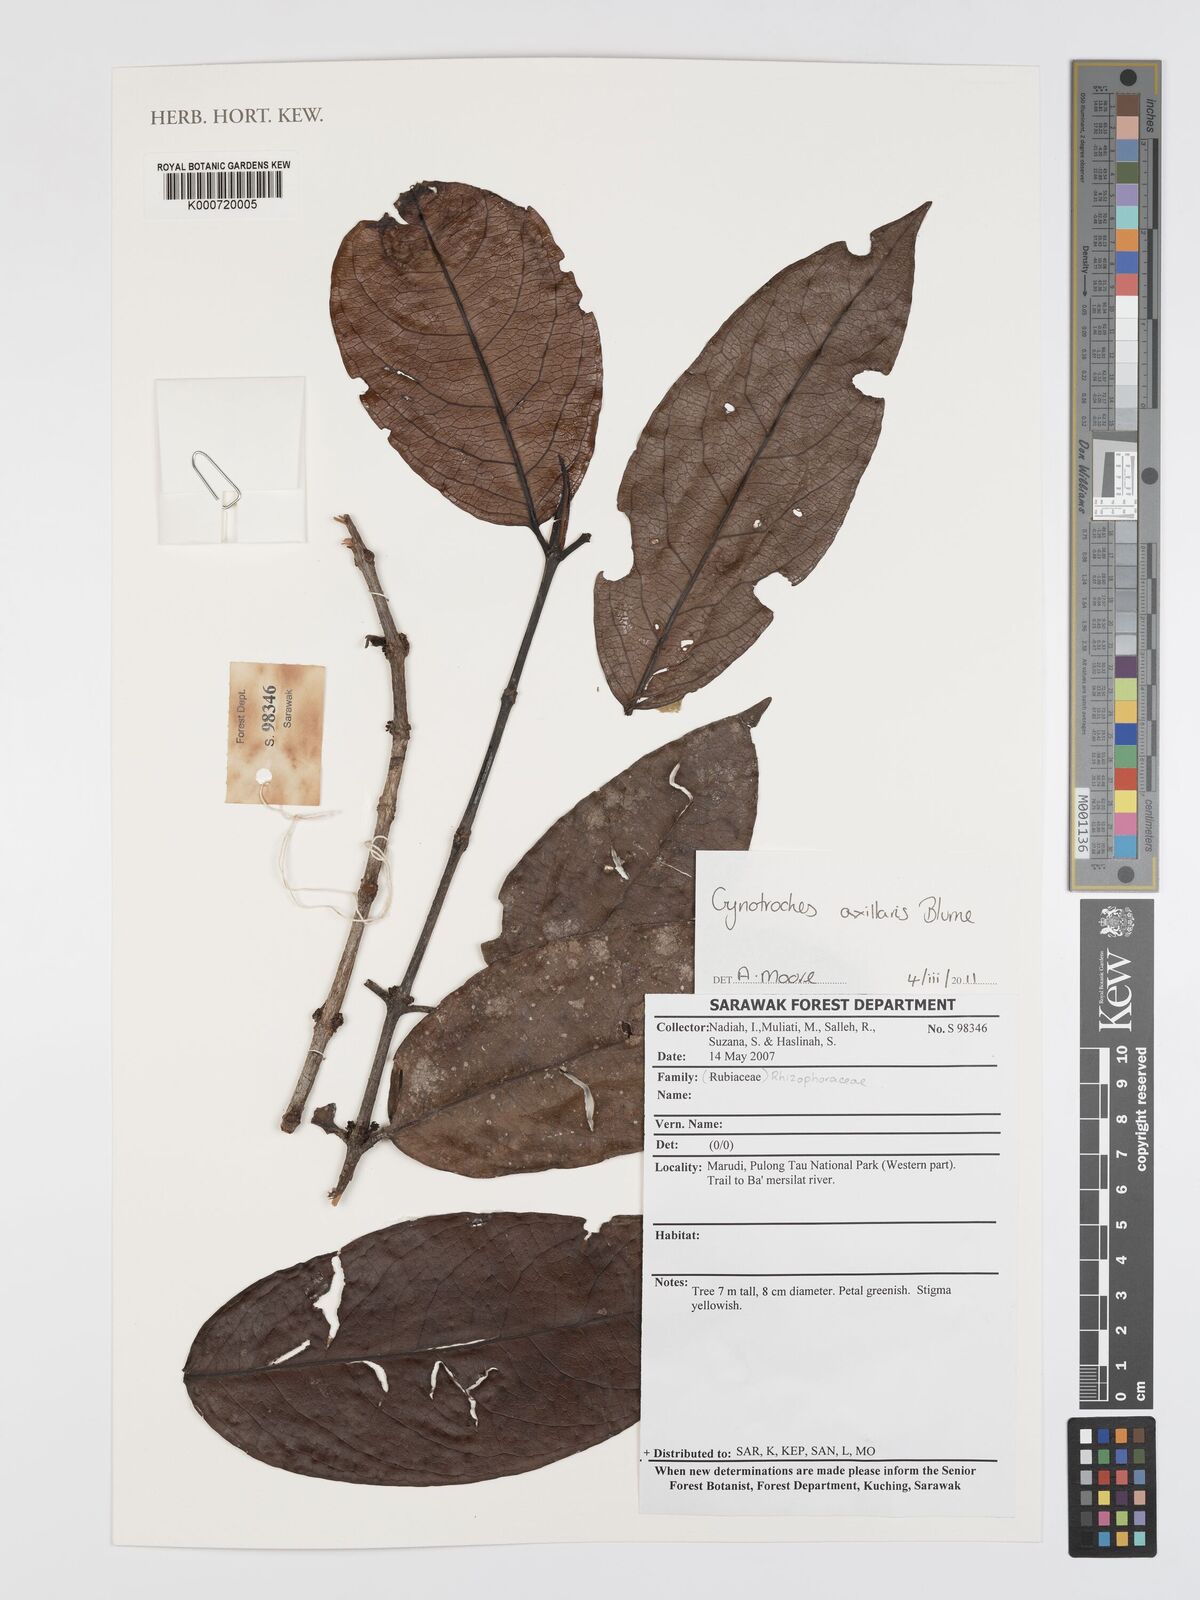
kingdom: Plantae
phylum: Tracheophyta
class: Magnoliopsida
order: Malpighiales
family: Rhizophoraceae
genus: Gynotroches
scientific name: Gynotroches axillaris
